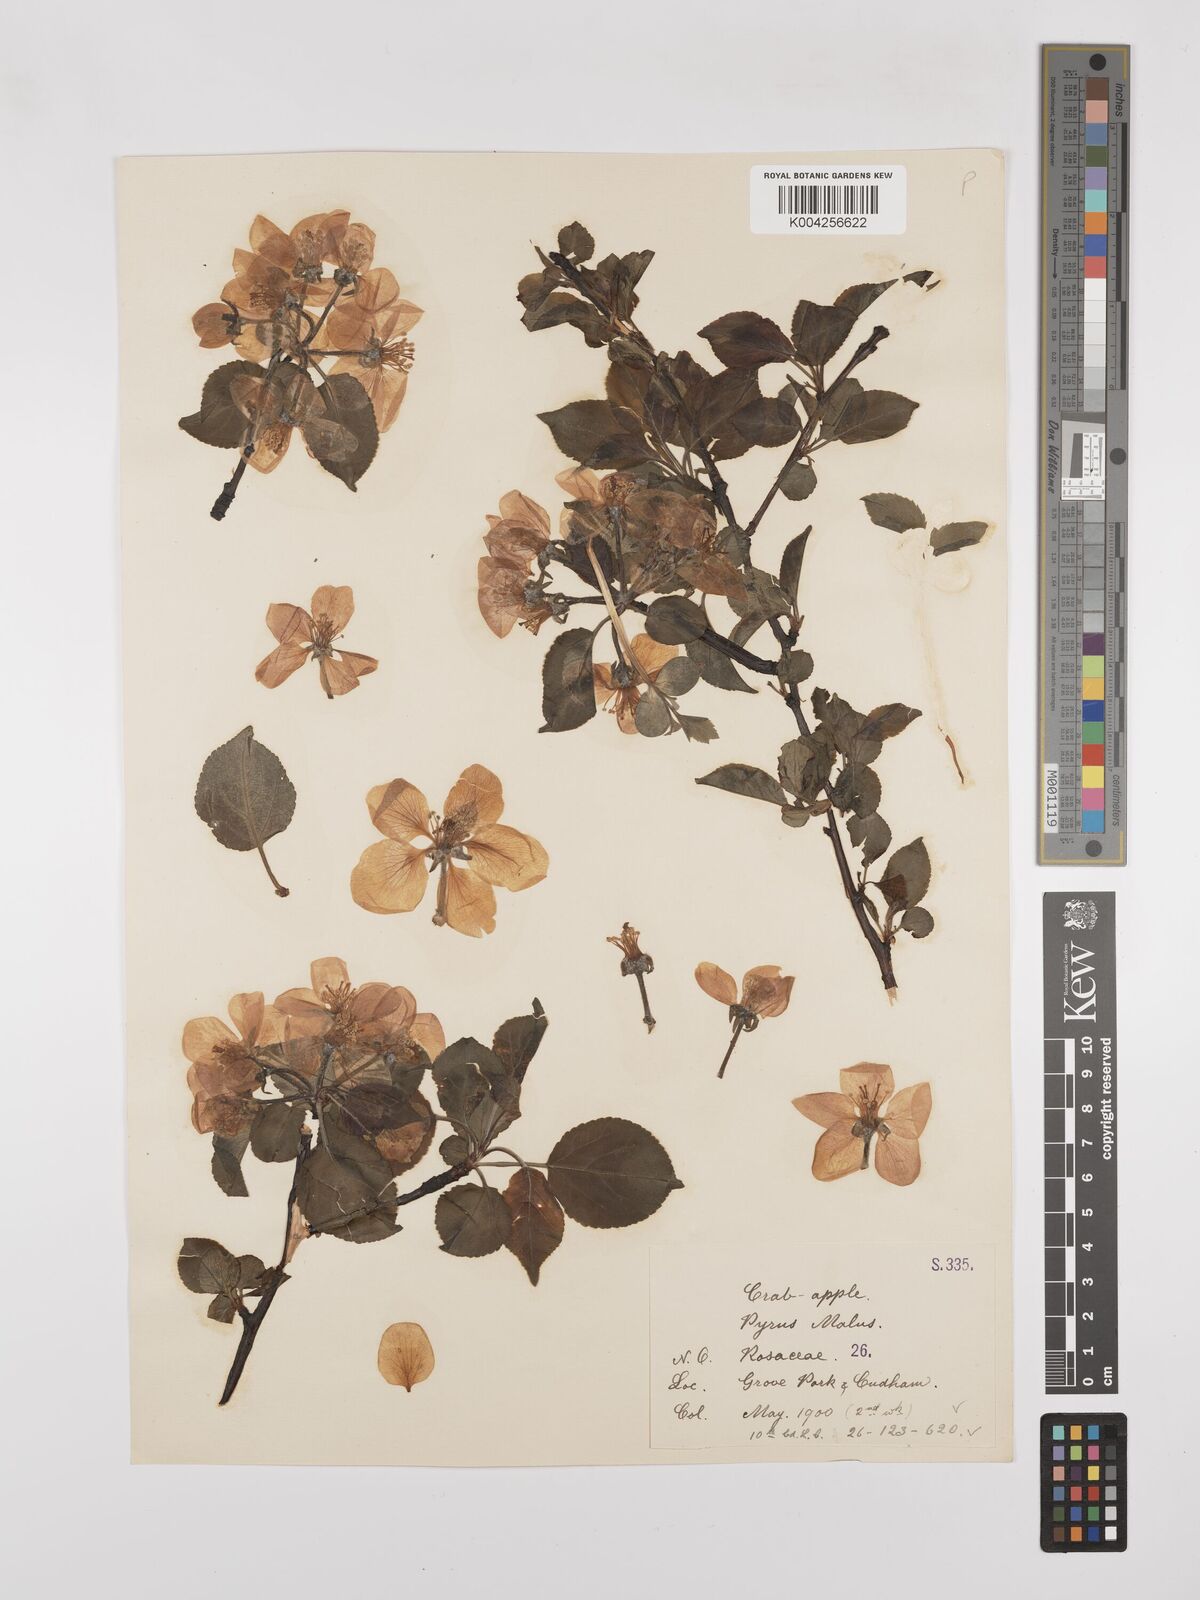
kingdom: Plantae
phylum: Tracheophyta
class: Magnoliopsida
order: Rosales
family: Rosaceae
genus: Malus
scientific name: Malus sylvestris
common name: Crab apple
